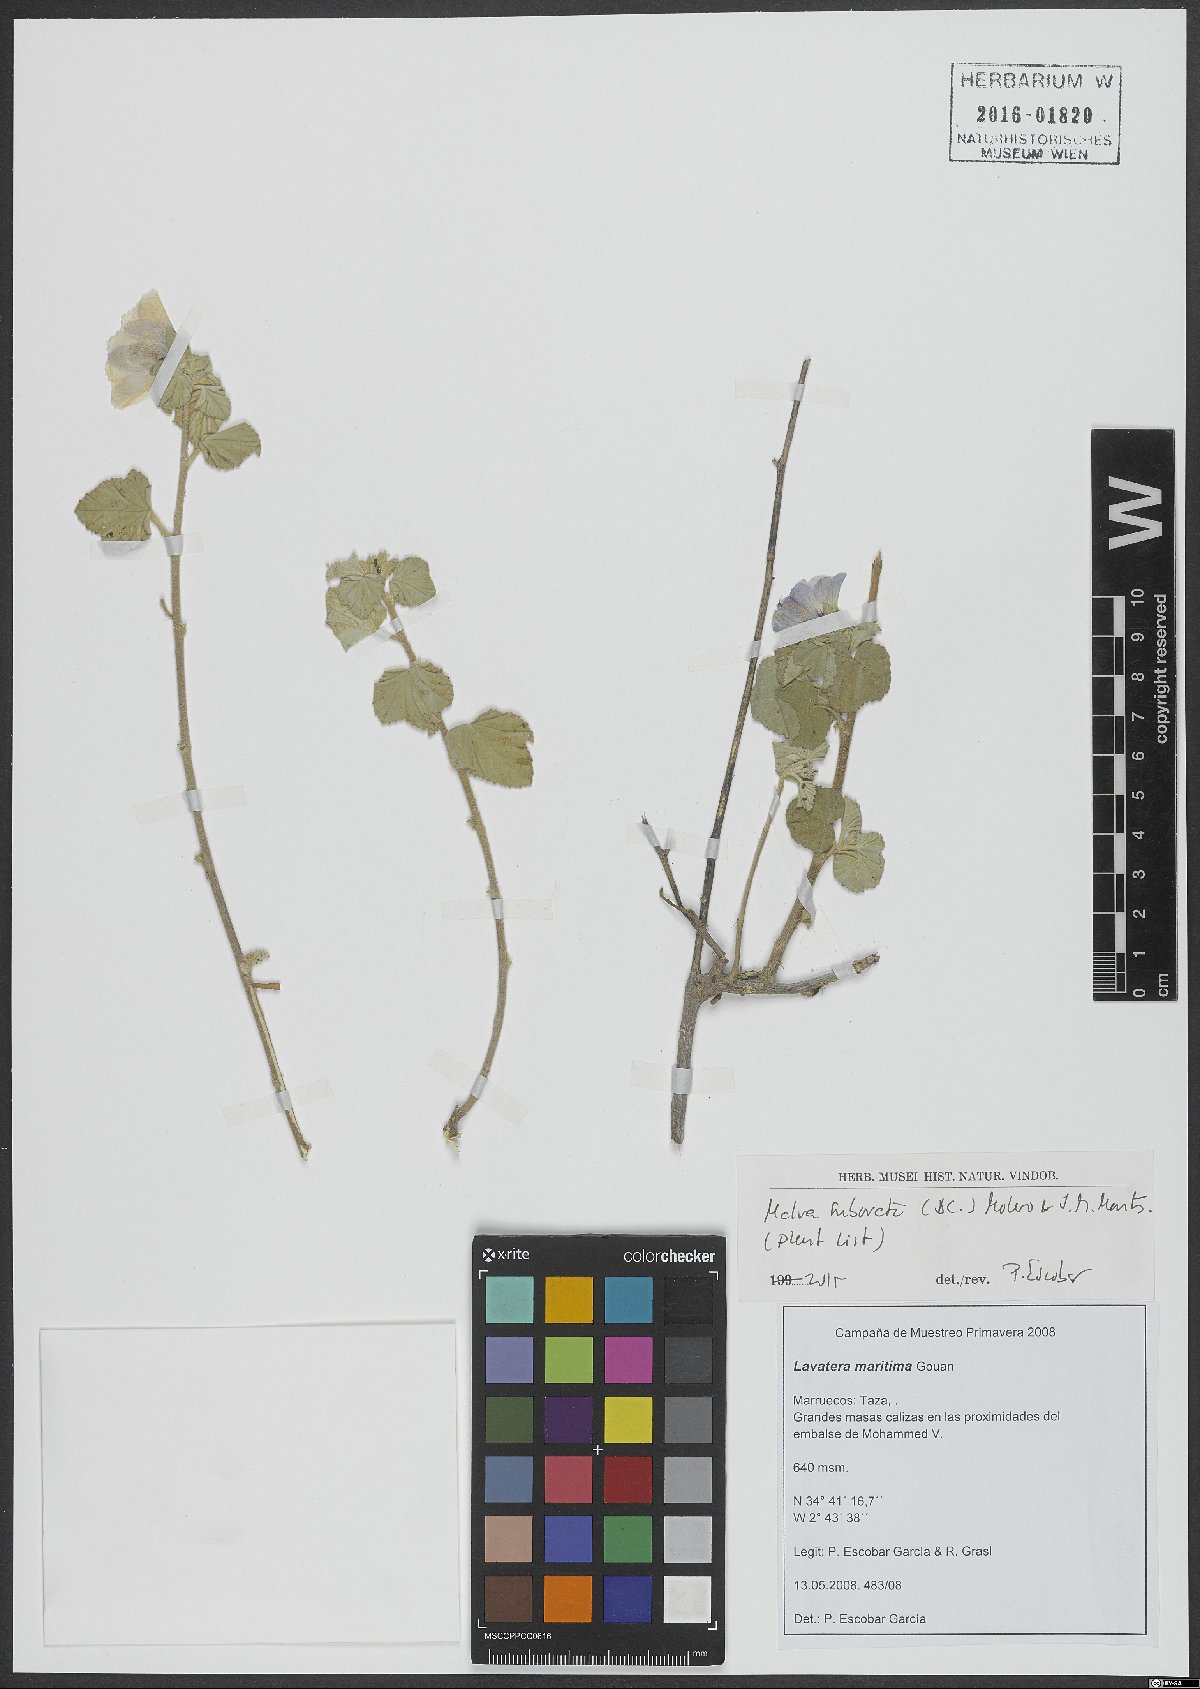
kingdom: Plantae
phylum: Tracheophyta
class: Magnoliopsida
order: Malvales
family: Malvaceae
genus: Malva
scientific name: Malva subovata
